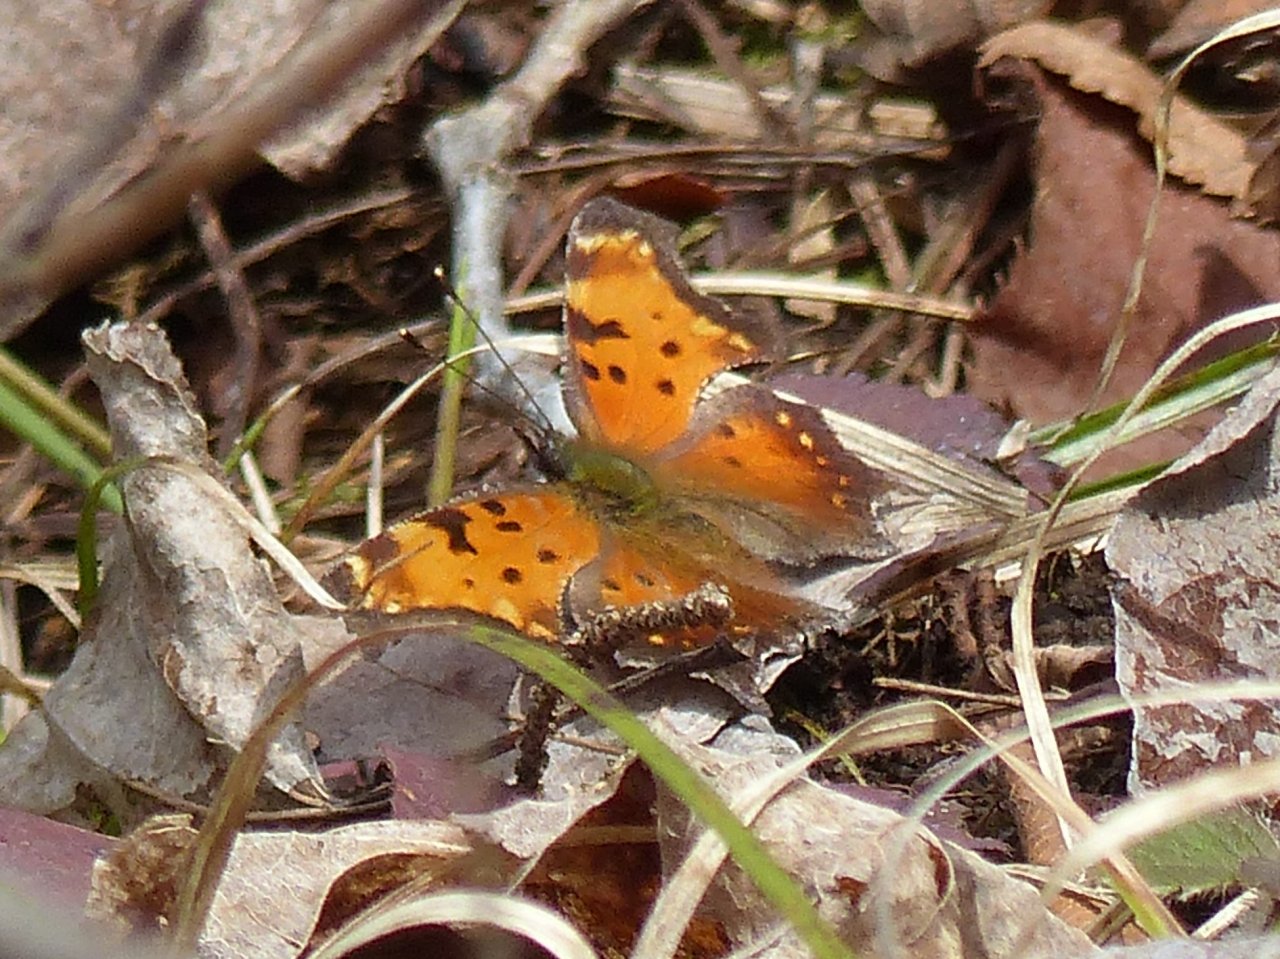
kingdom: Animalia
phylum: Arthropoda
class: Insecta
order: Lepidoptera
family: Nymphalidae
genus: Polygonia
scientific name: Polygonia progne
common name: Gray Comma
